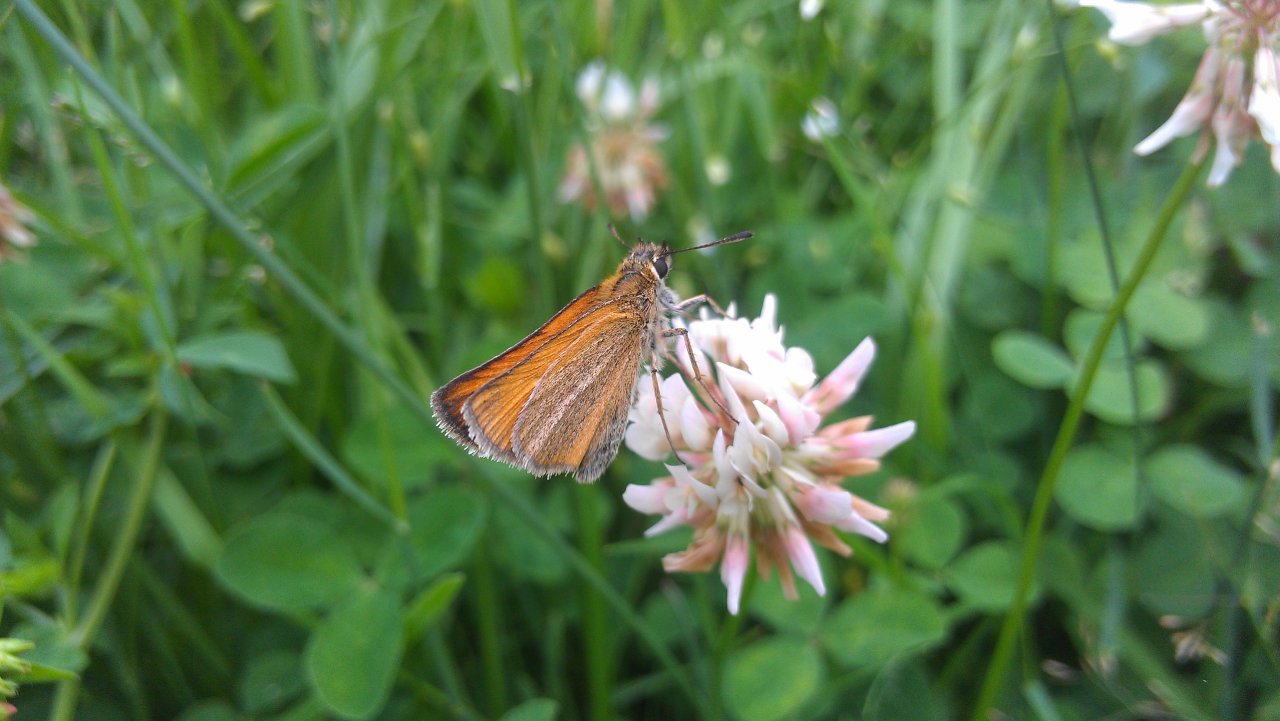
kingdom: Animalia
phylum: Arthropoda
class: Insecta
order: Lepidoptera
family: Hesperiidae
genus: Thymelicus
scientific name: Thymelicus lineola
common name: European Skipper
